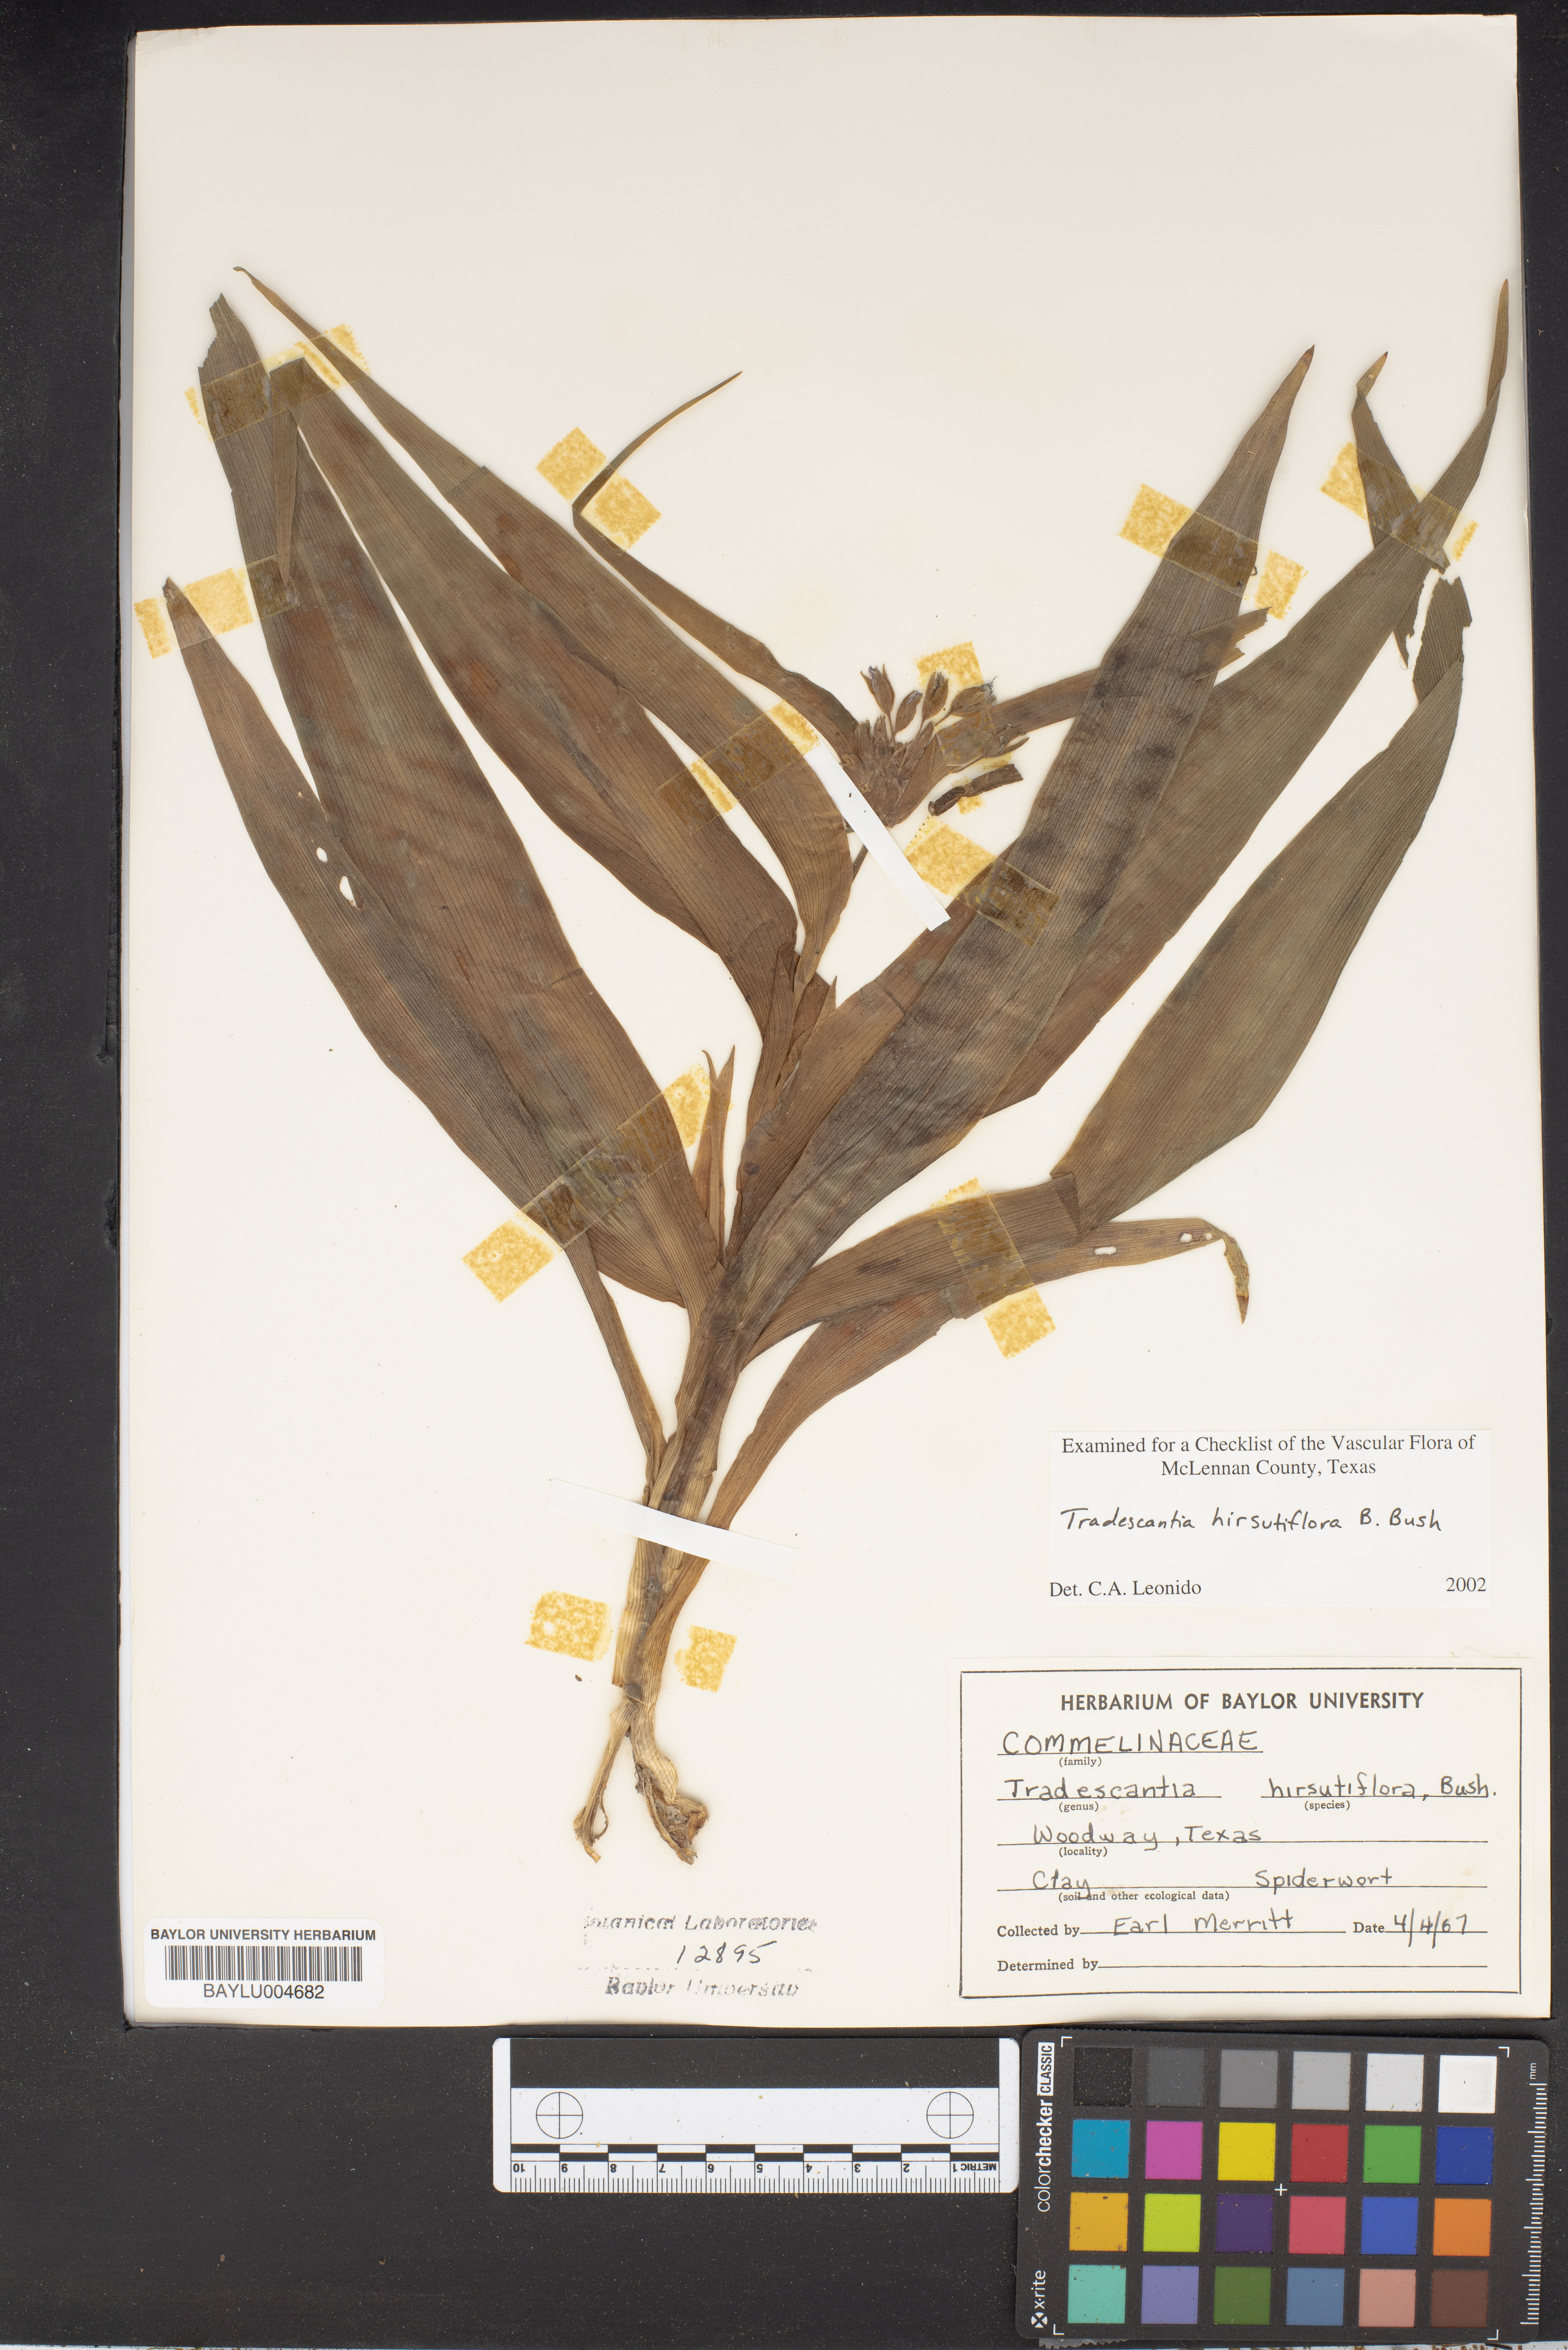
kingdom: Plantae
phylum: Tracheophyta
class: Liliopsida
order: Commelinales
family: Commelinaceae
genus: Tradescantia
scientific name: Tradescantia hirsutiflora
